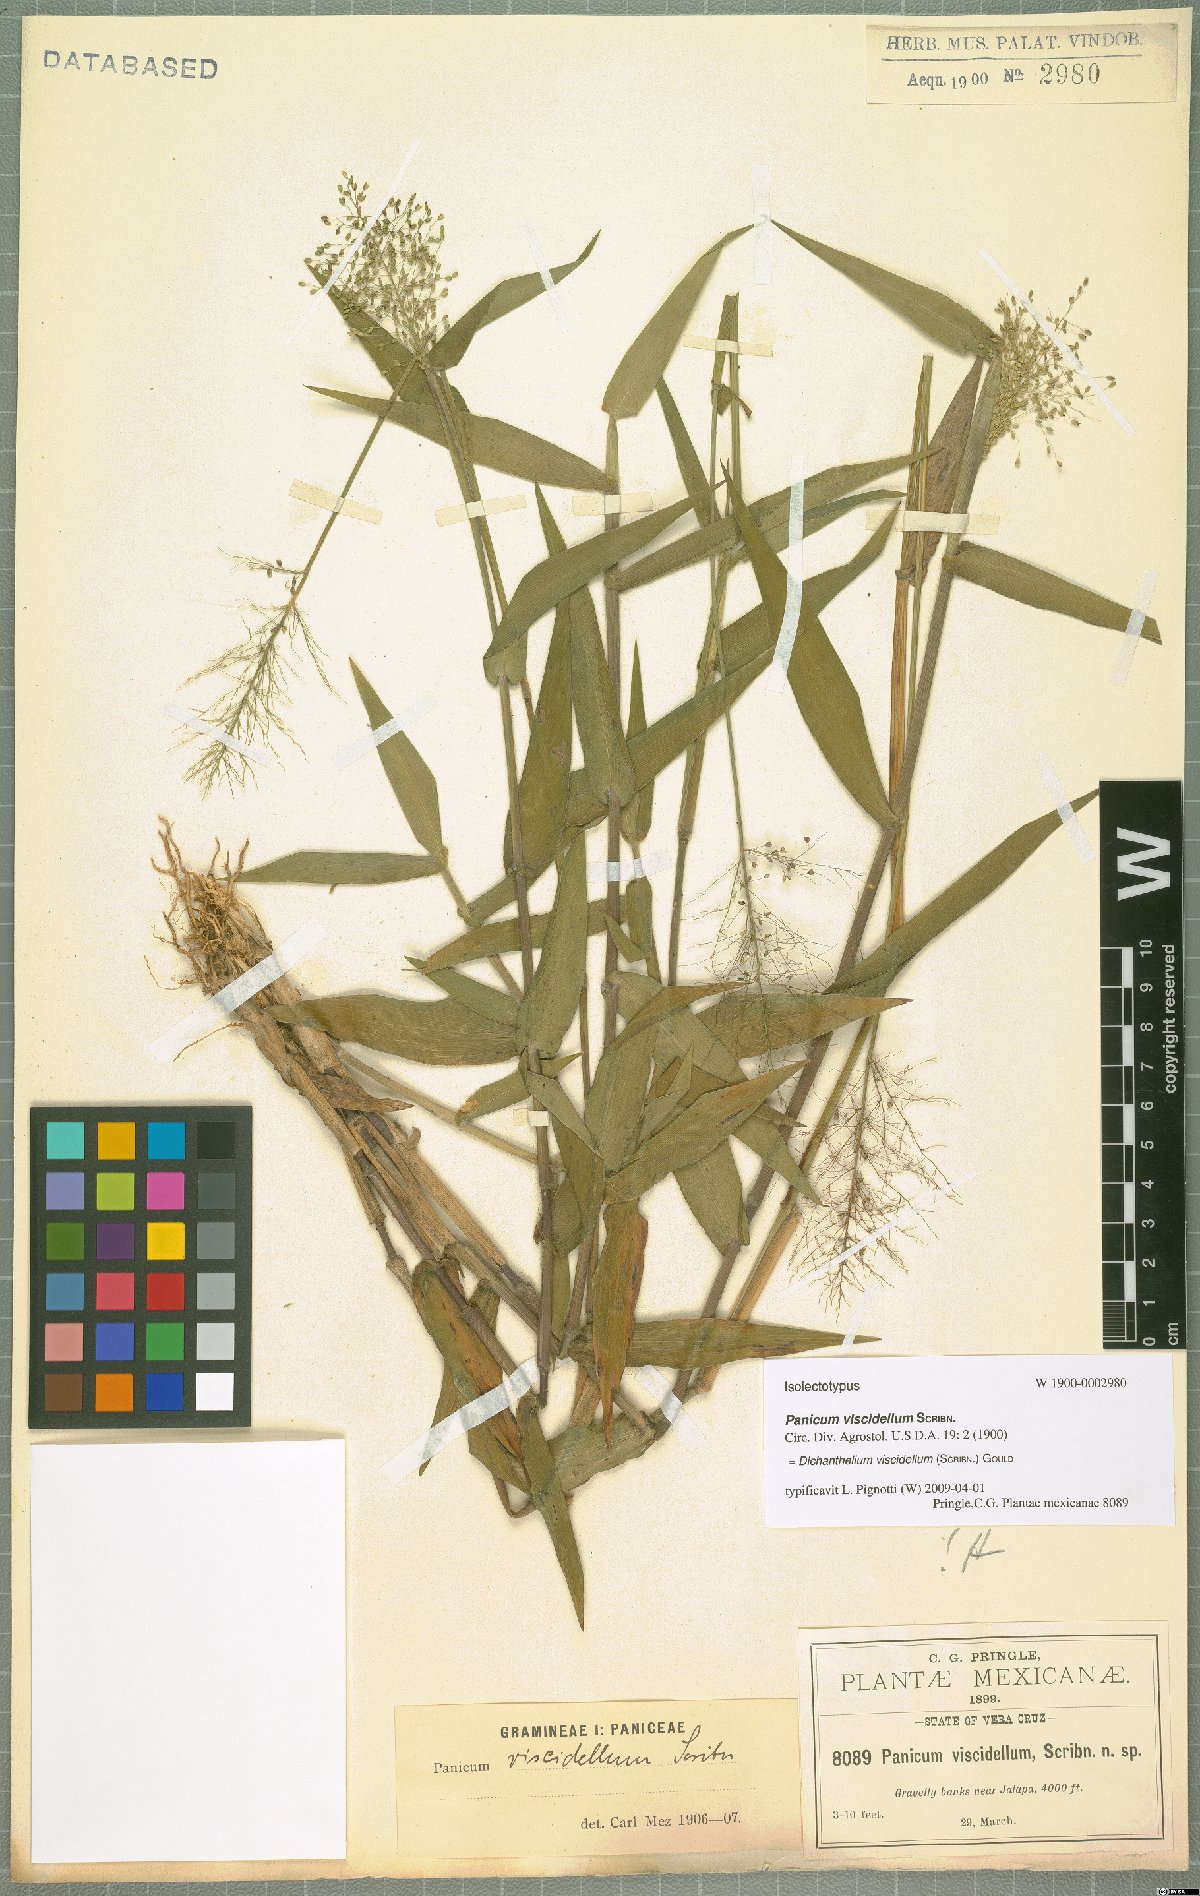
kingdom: Plantae
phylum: Tracheophyta
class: Liliopsida
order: Poales
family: Poaceae
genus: Dichanthelium
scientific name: Dichanthelium viscidellum
